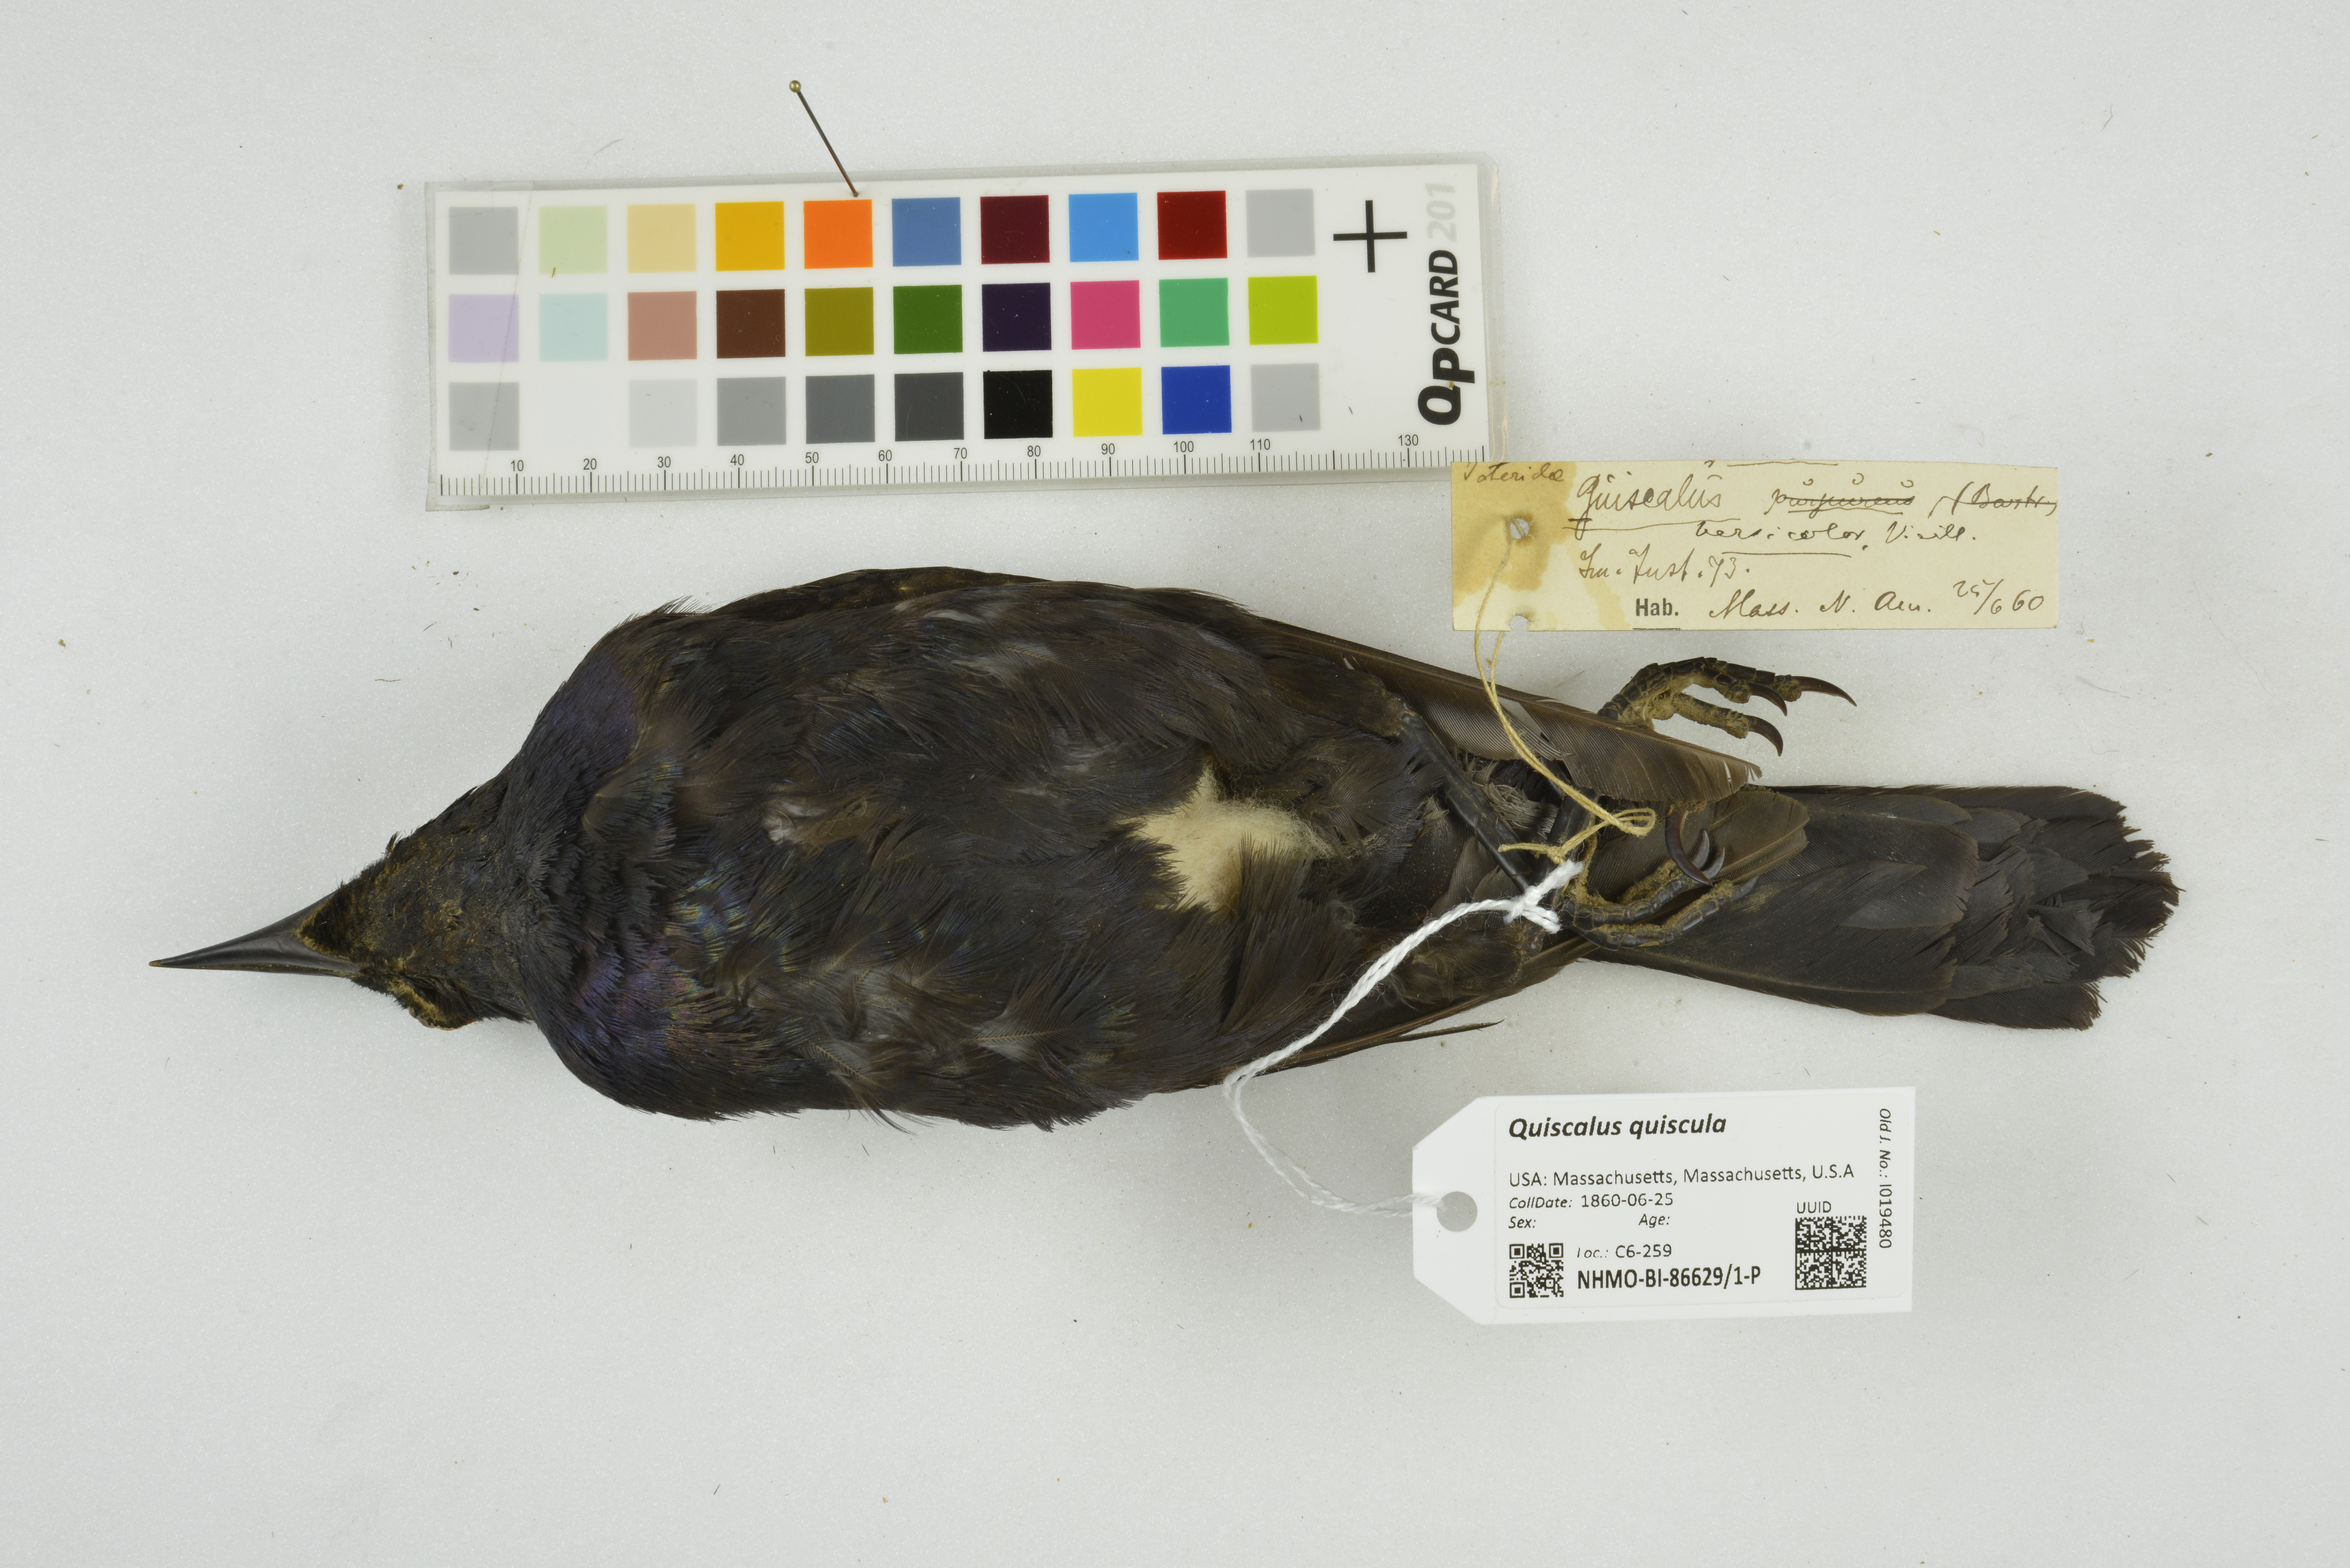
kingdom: Animalia
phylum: Chordata
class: Aves
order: Passeriformes
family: Icteridae
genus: Quiscalus
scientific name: Quiscalus quiscula
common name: Common grackle
